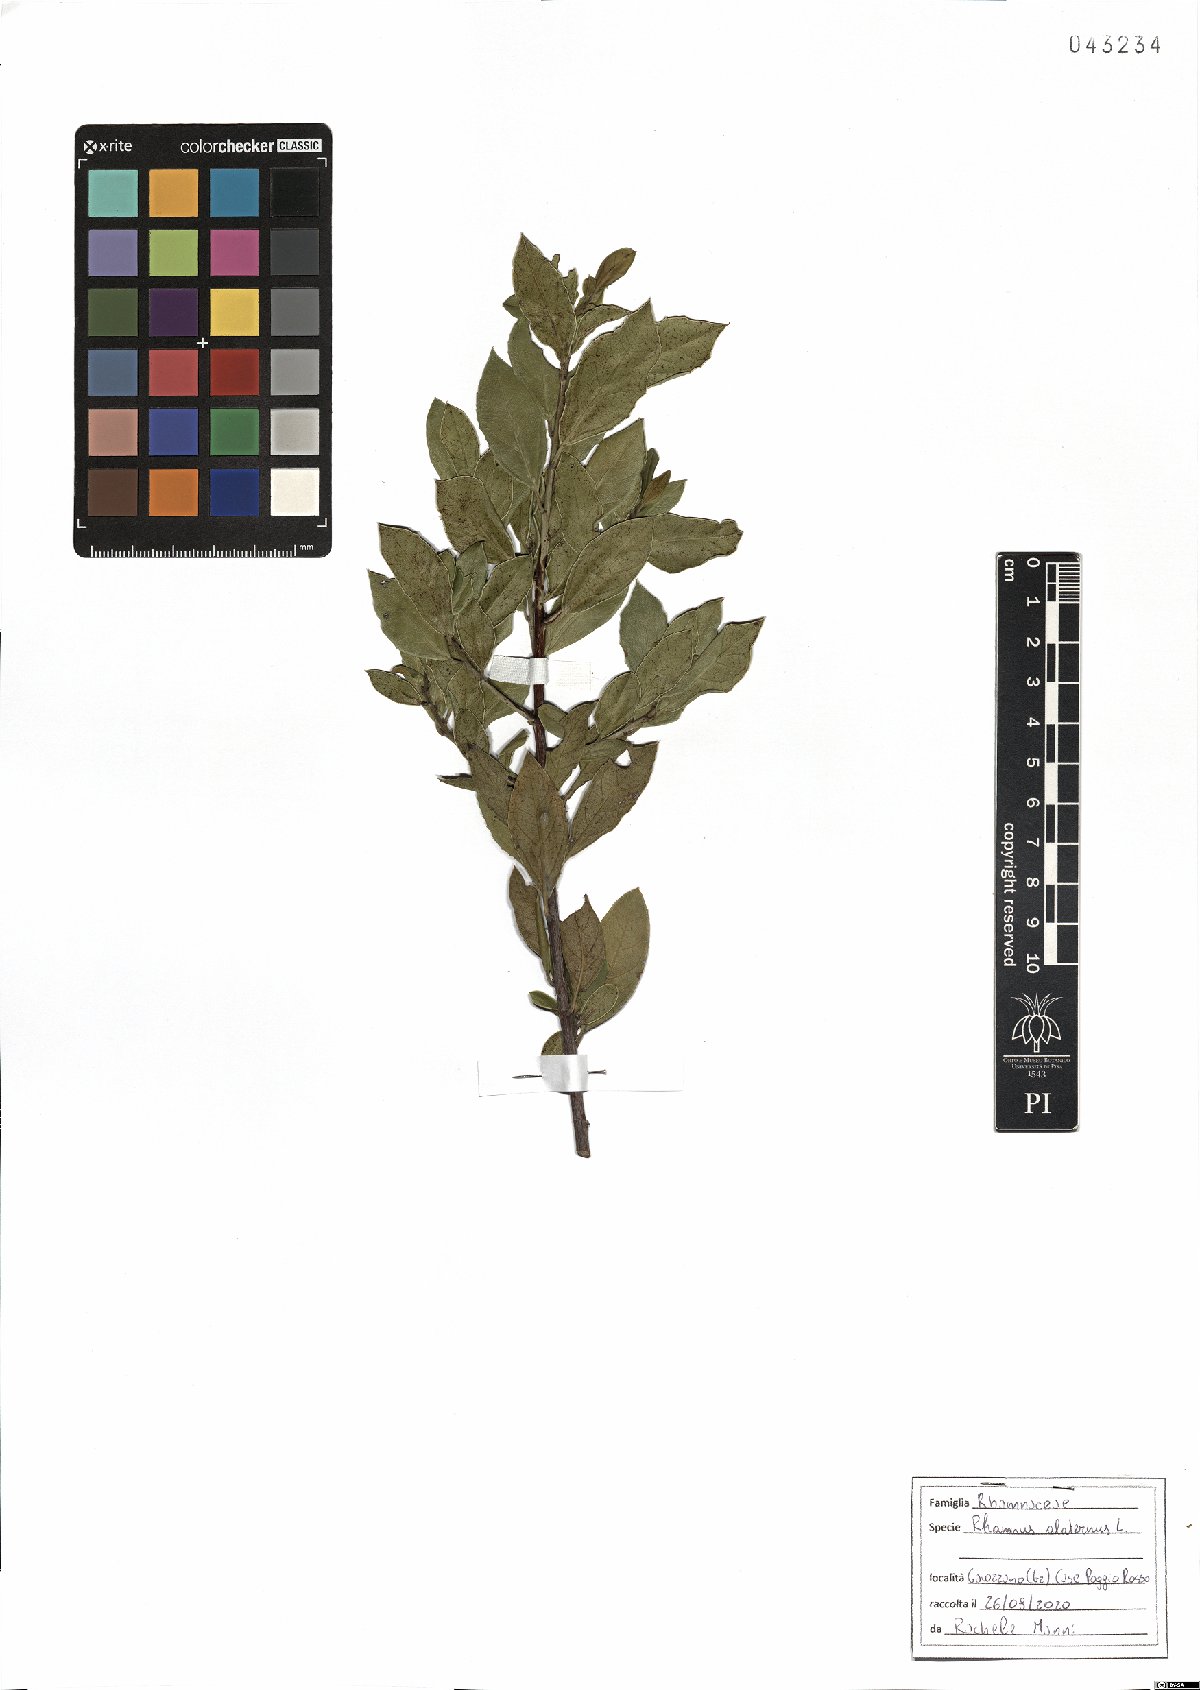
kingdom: Plantae
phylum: Tracheophyta
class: Magnoliopsida
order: Rosales
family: Rhamnaceae
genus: Rhamnus
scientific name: Rhamnus alaternus
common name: Mediterranean buckthorn
